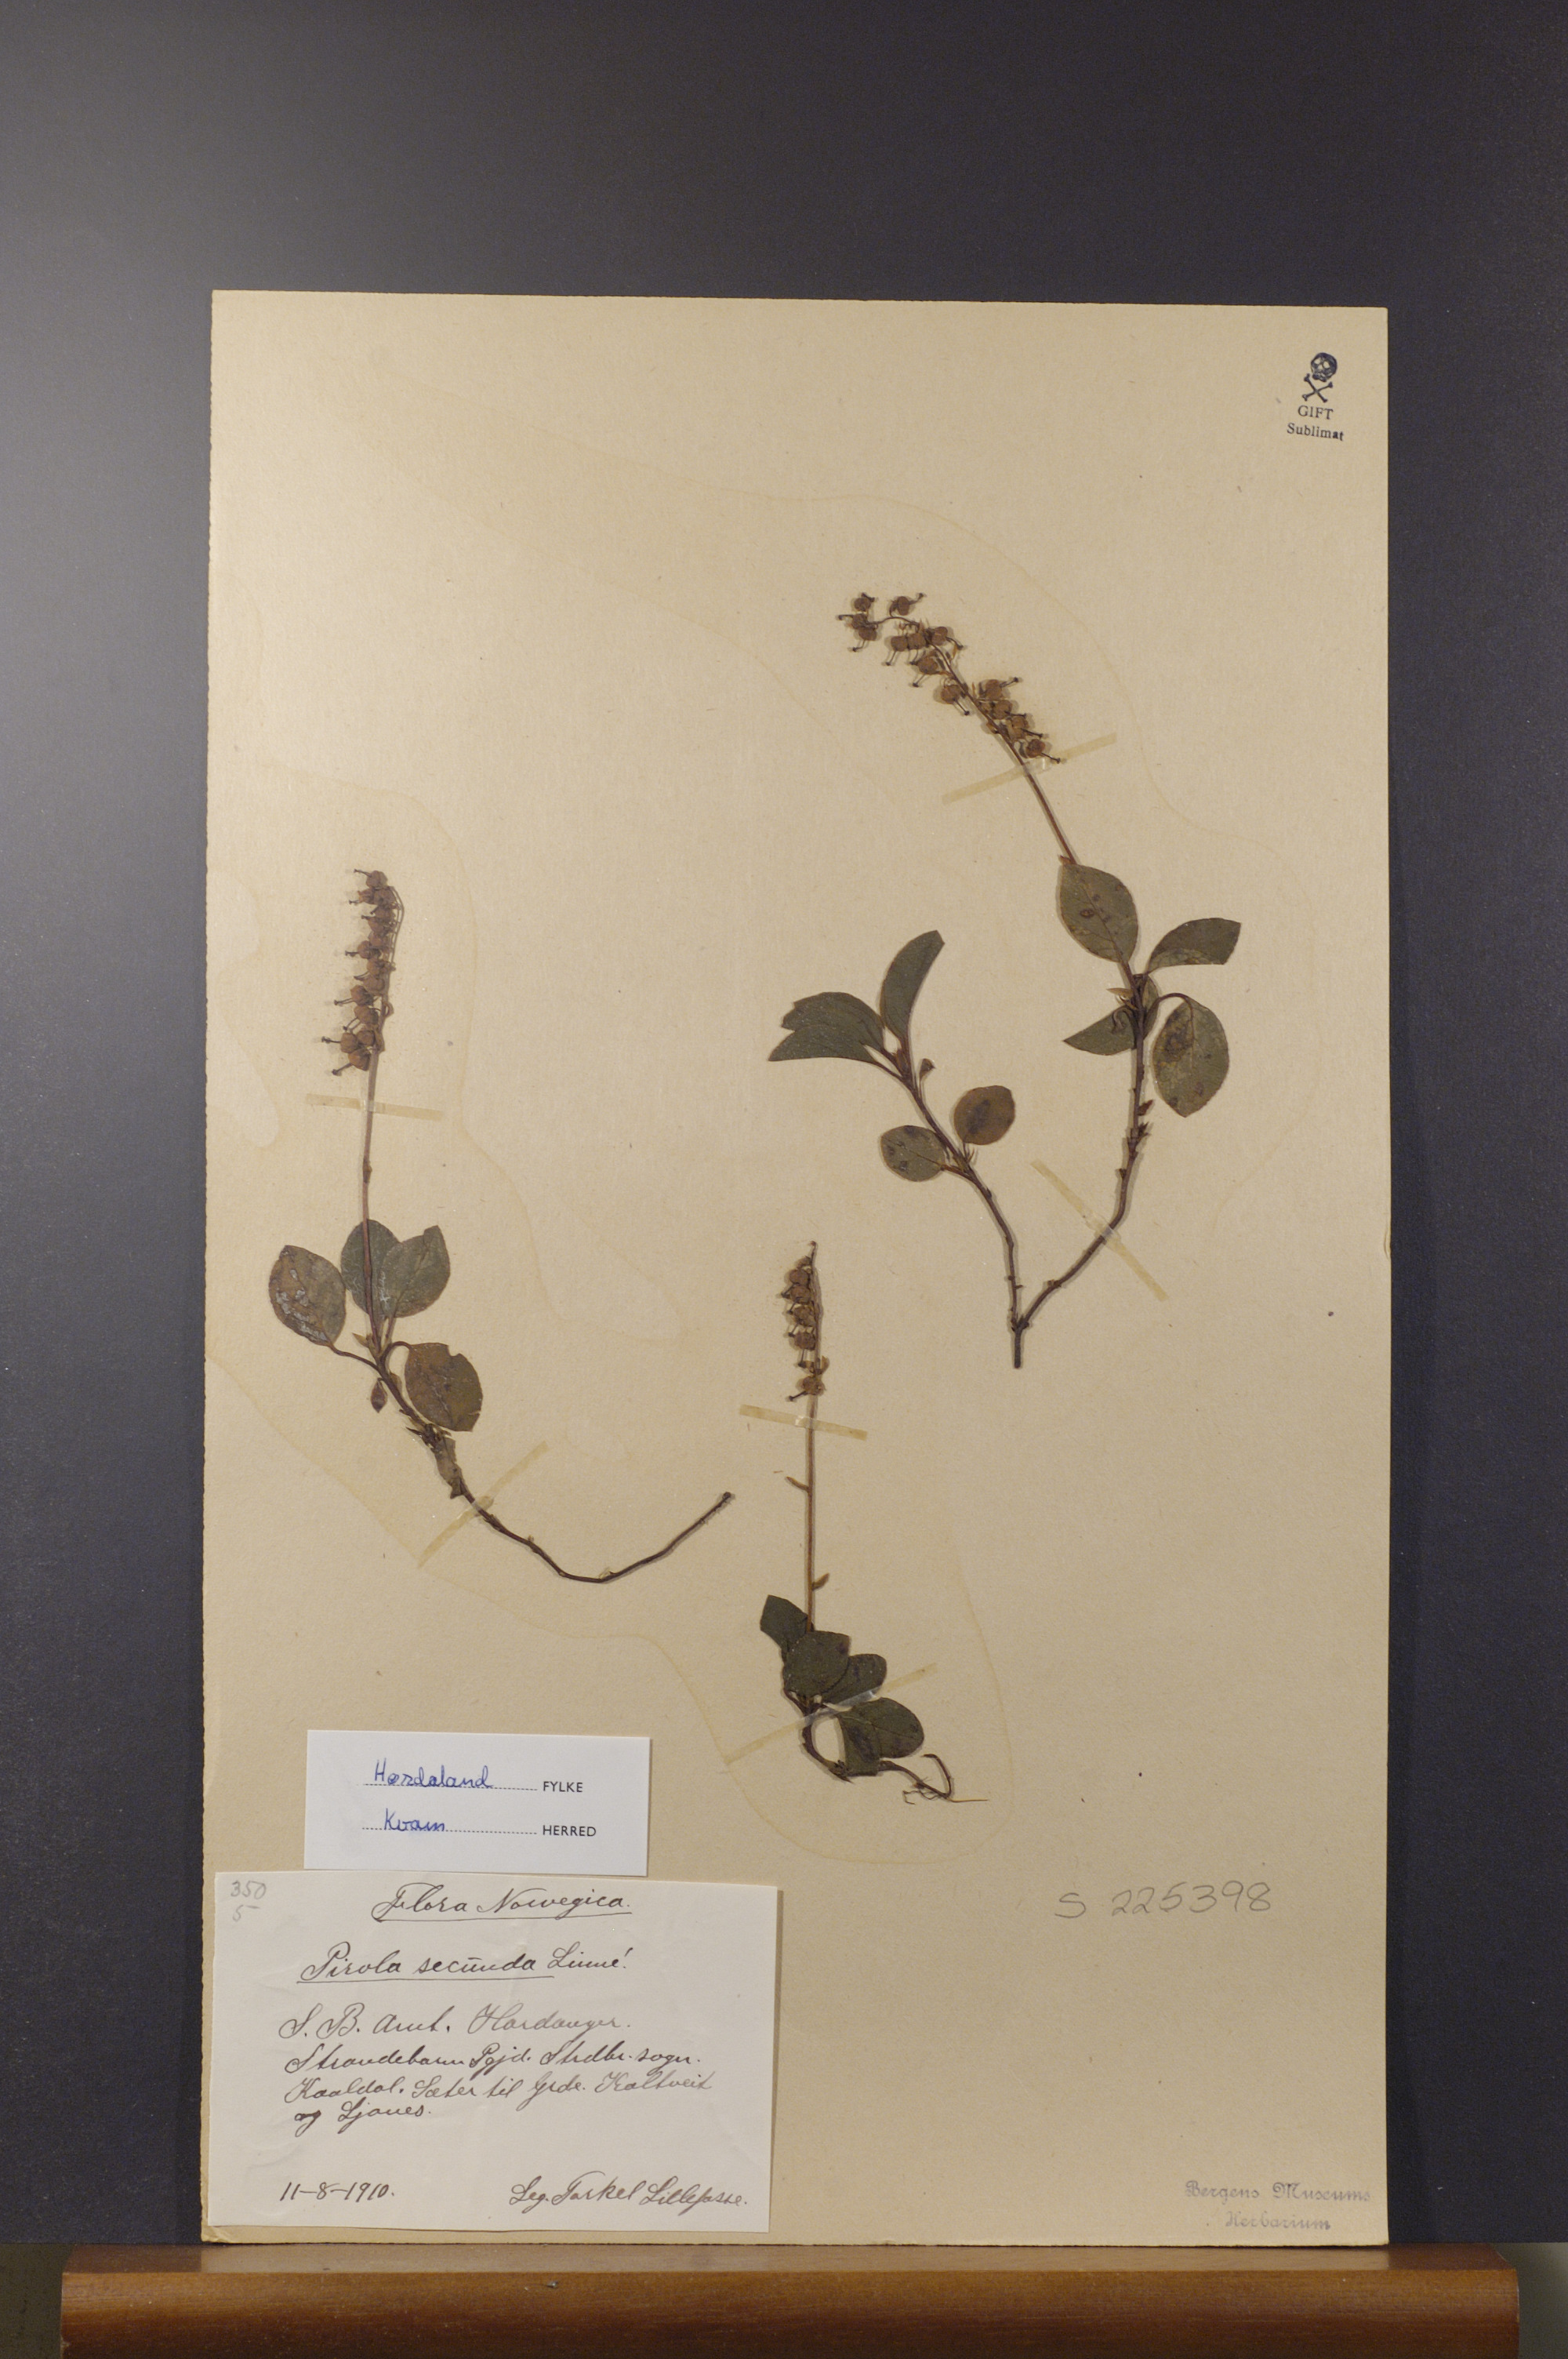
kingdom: Plantae
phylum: Tracheophyta
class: Magnoliopsida
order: Ericales
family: Ericaceae
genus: Orthilia
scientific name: Orthilia secunda
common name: One-sided orthilia
